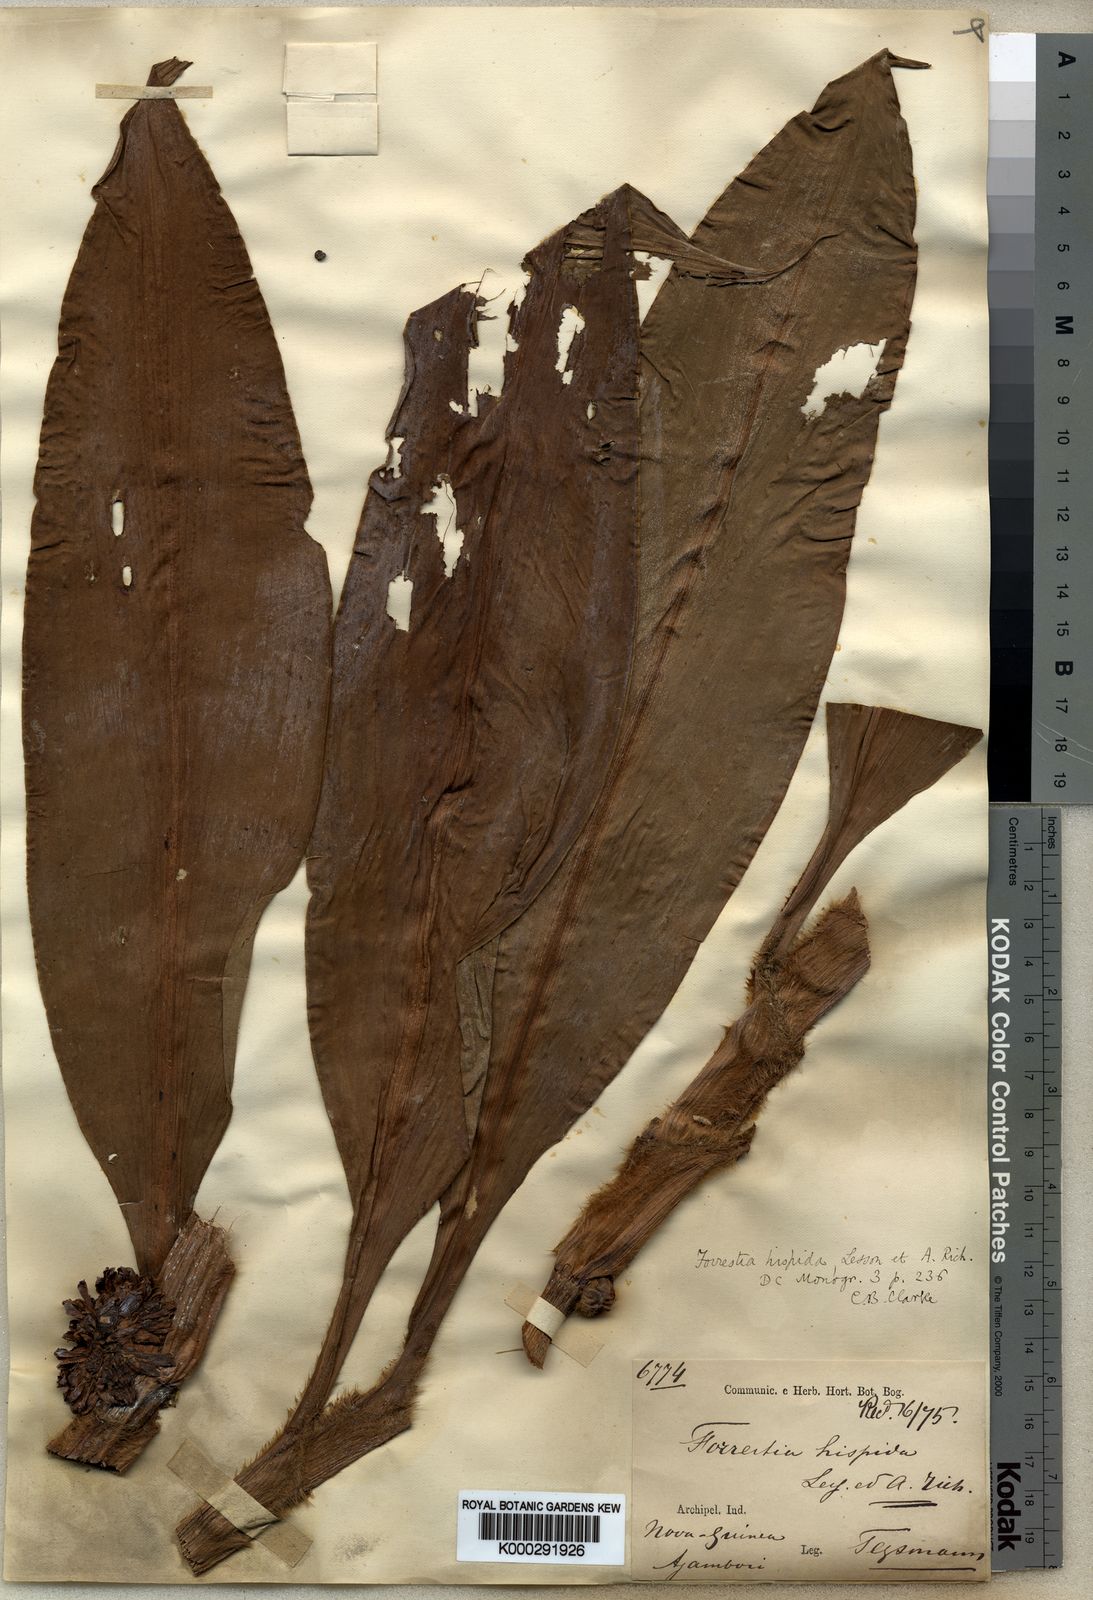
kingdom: Plantae
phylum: Tracheophyta
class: Liliopsida
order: Commelinales
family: Commelinaceae
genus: Amischotolype
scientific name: Amischotolype hispida
